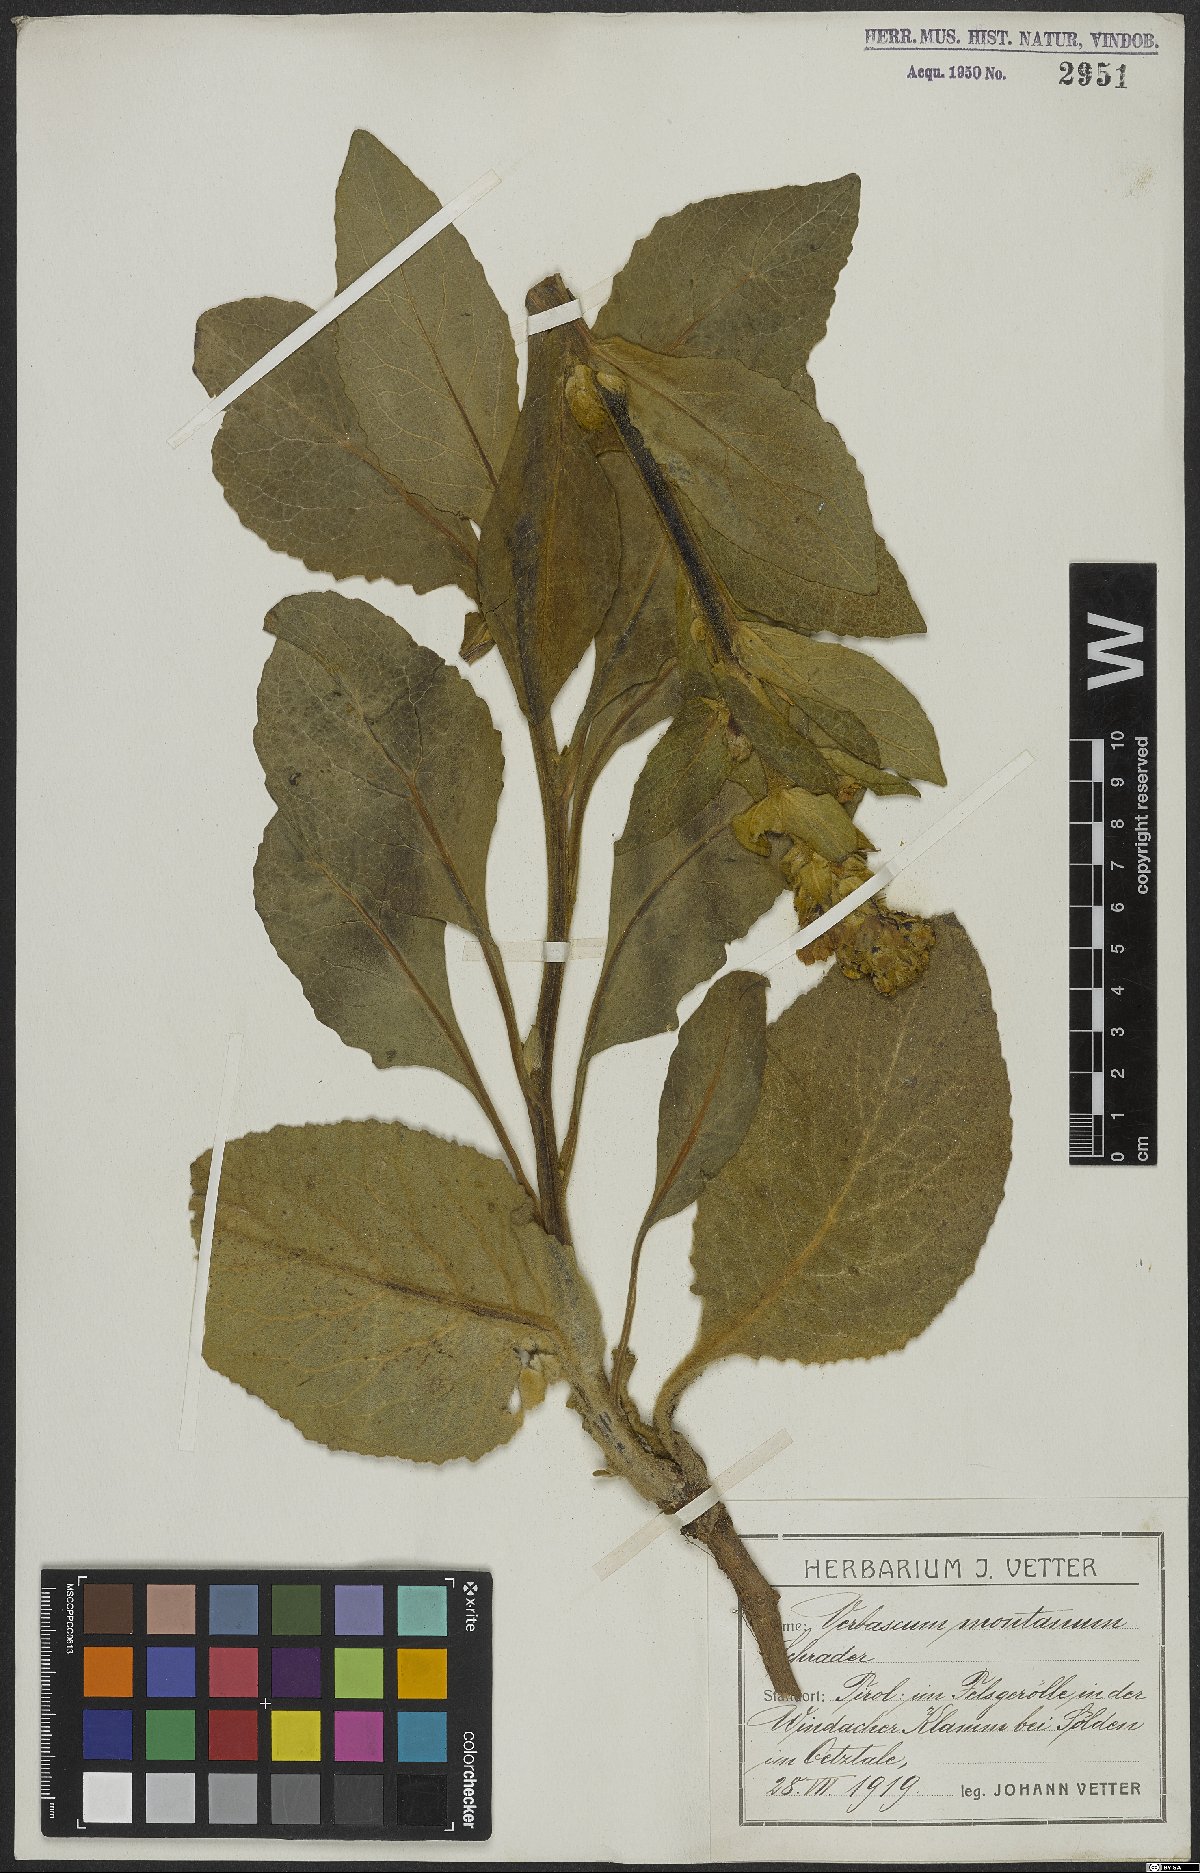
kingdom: Plantae
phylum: Tracheophyta
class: Magnoliopsida
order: Lamiales
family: Scrophulariaceae
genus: Verbascum
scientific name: Verbascum thapsus
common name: Common mullein
